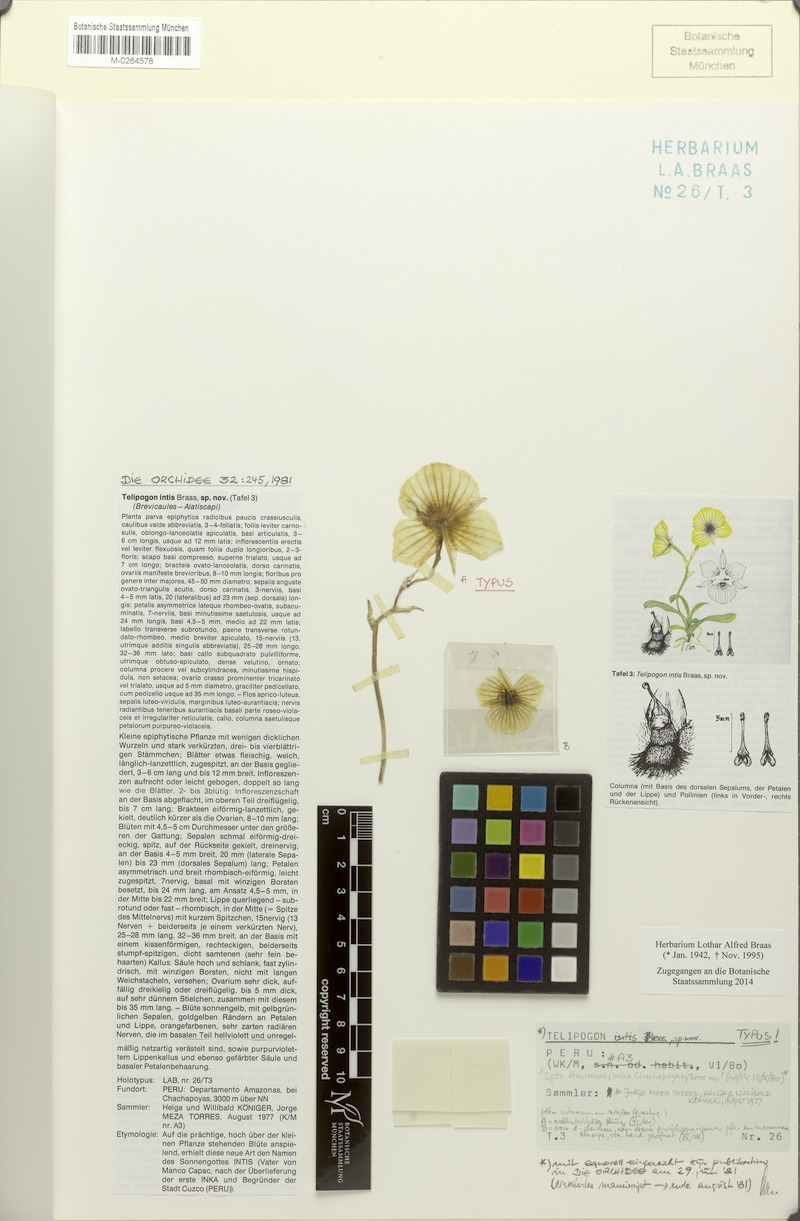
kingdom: Plantae
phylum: Tracheophyta
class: Liliopsida
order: Asparagales
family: Orchidaceae
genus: Telipogon
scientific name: Telipogon intis
